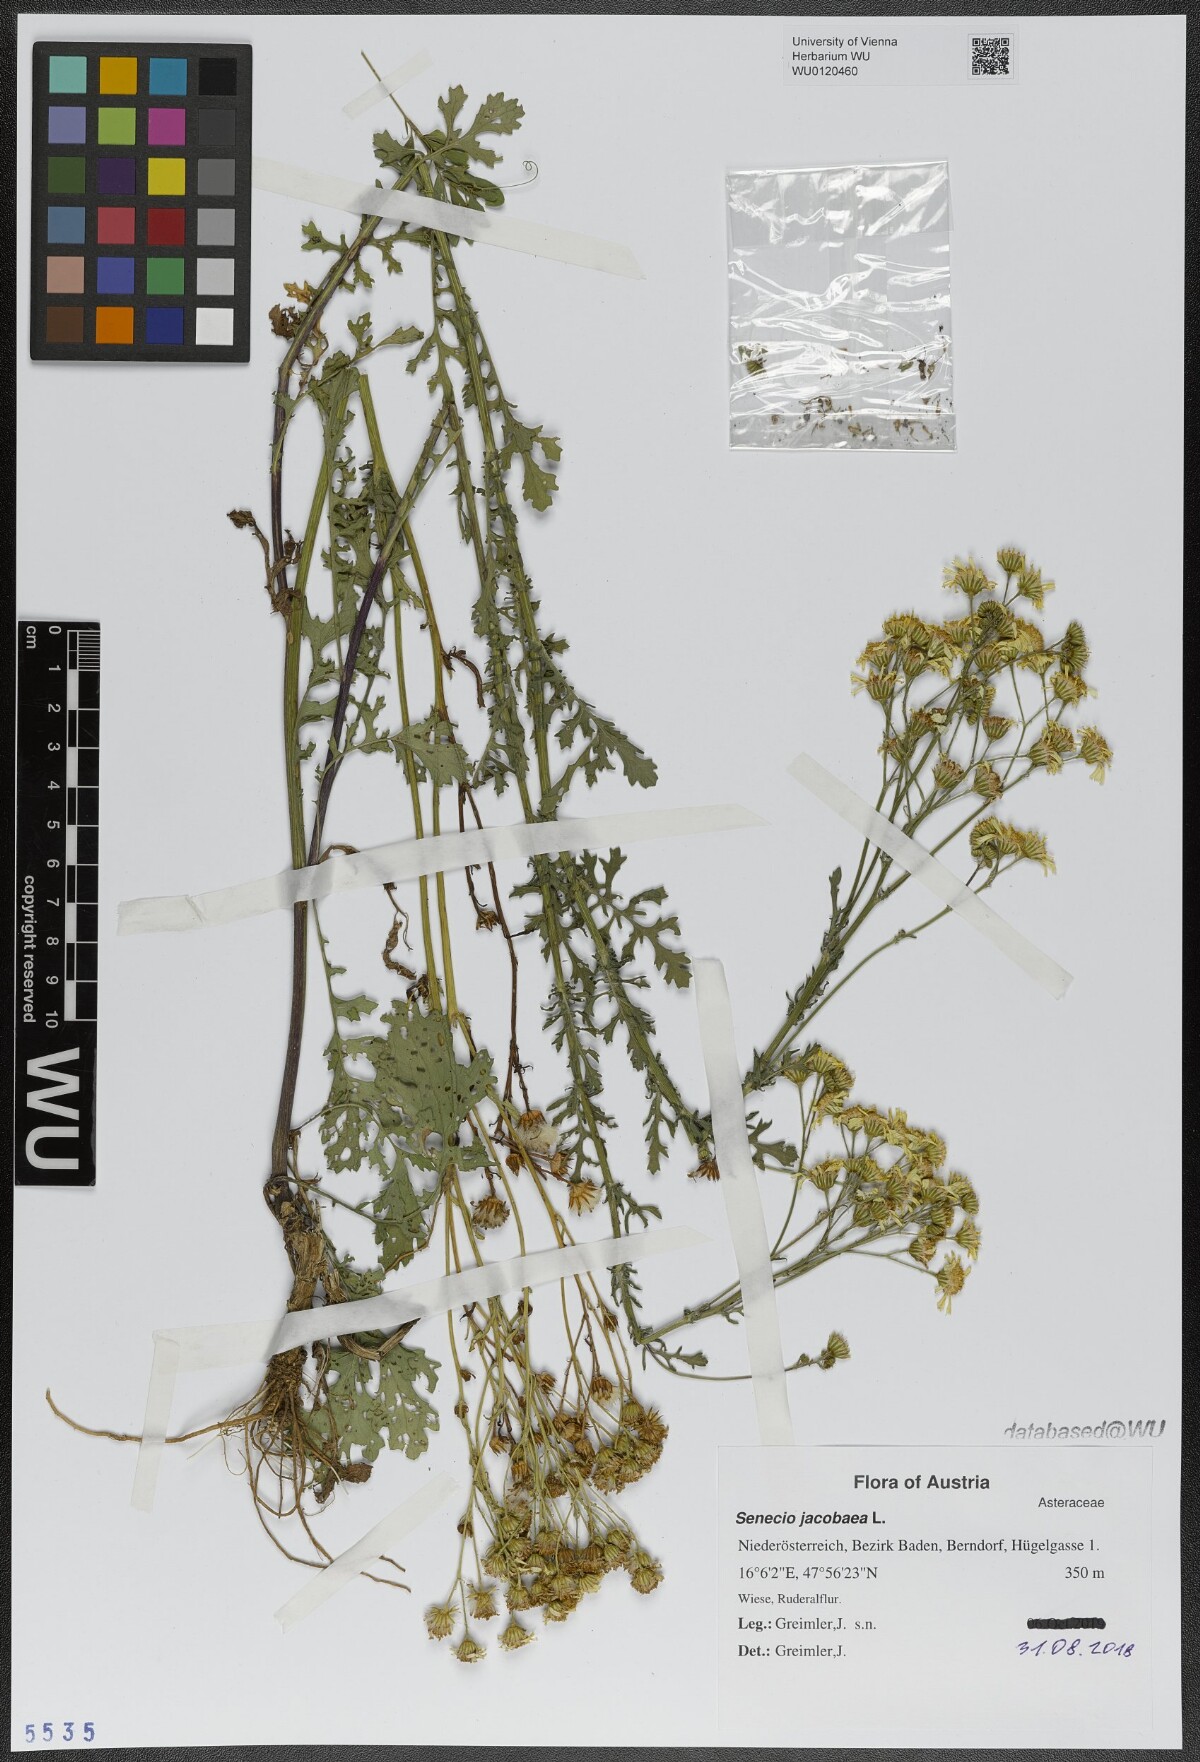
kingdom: Plantae
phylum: Tracheophyta
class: Magnoliopsida
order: Asterales
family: Asteraceae
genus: Jacobaea
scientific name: Jacobaea vulgaris
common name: Stinking willie
